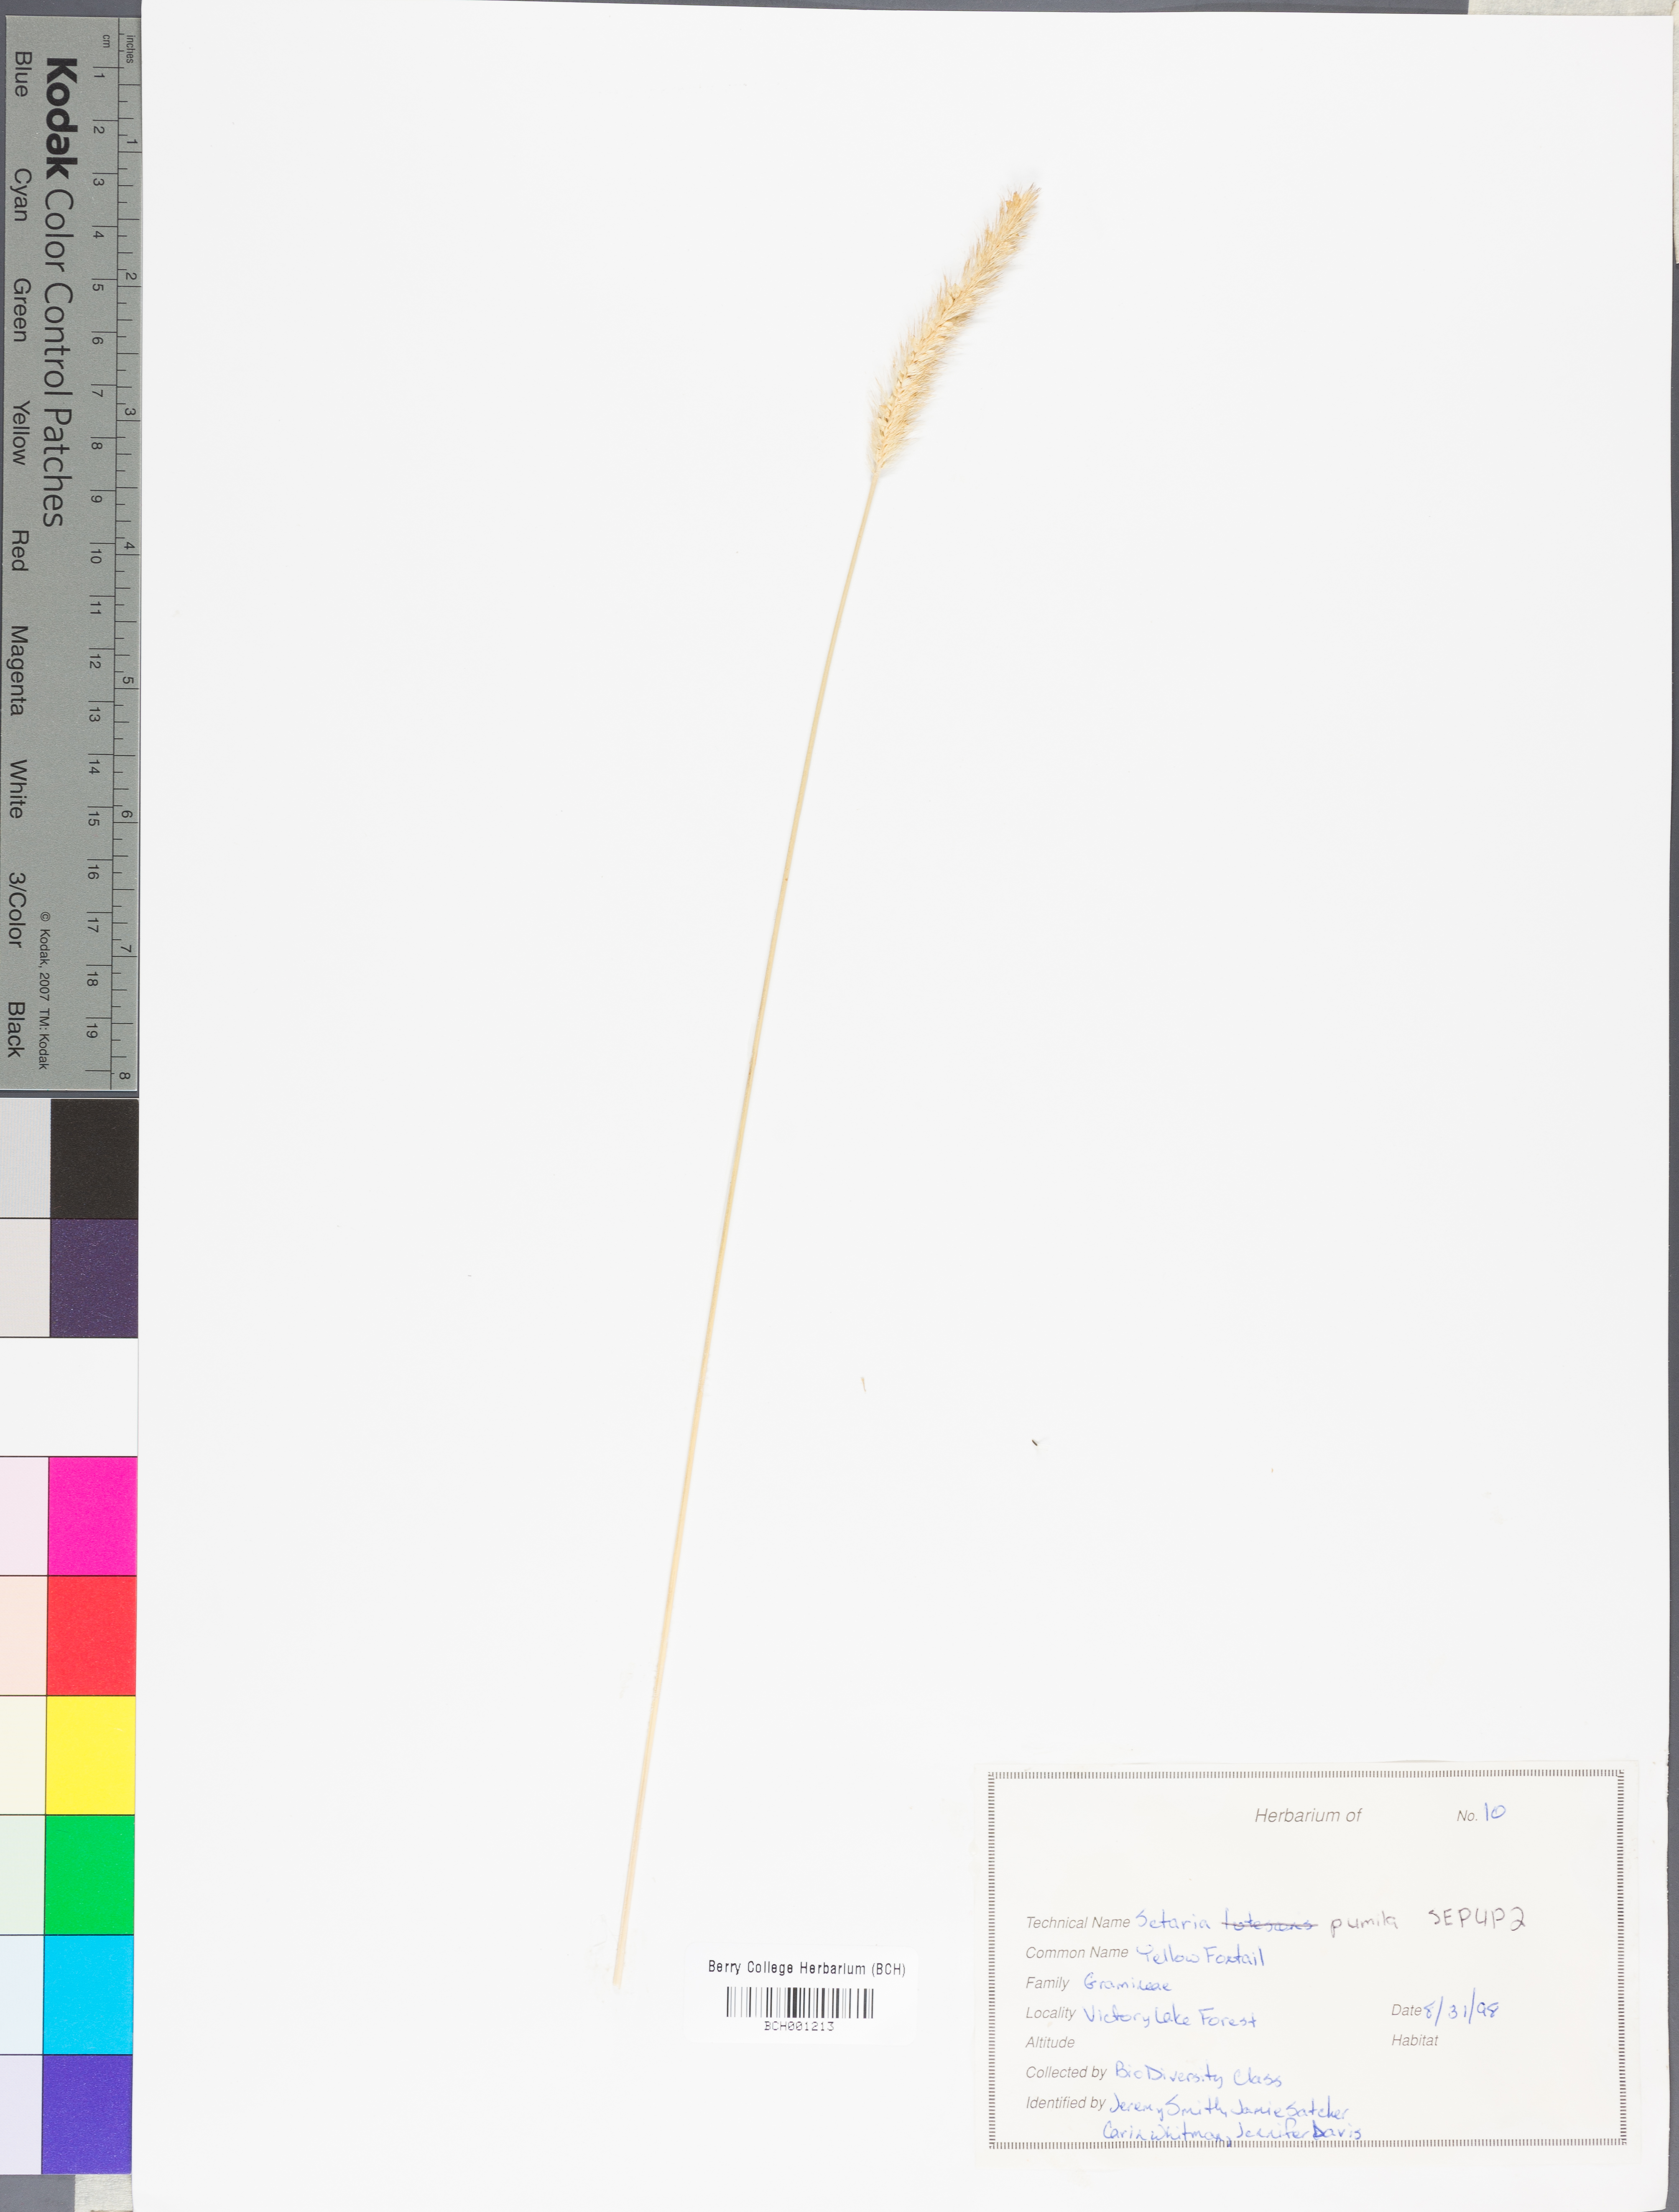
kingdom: Plantae
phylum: Tracheophyta
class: Liliopsida
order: Poales
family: Poaceae
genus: Setaria
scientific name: Setaria pumila
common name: Yellow bristle-grass
